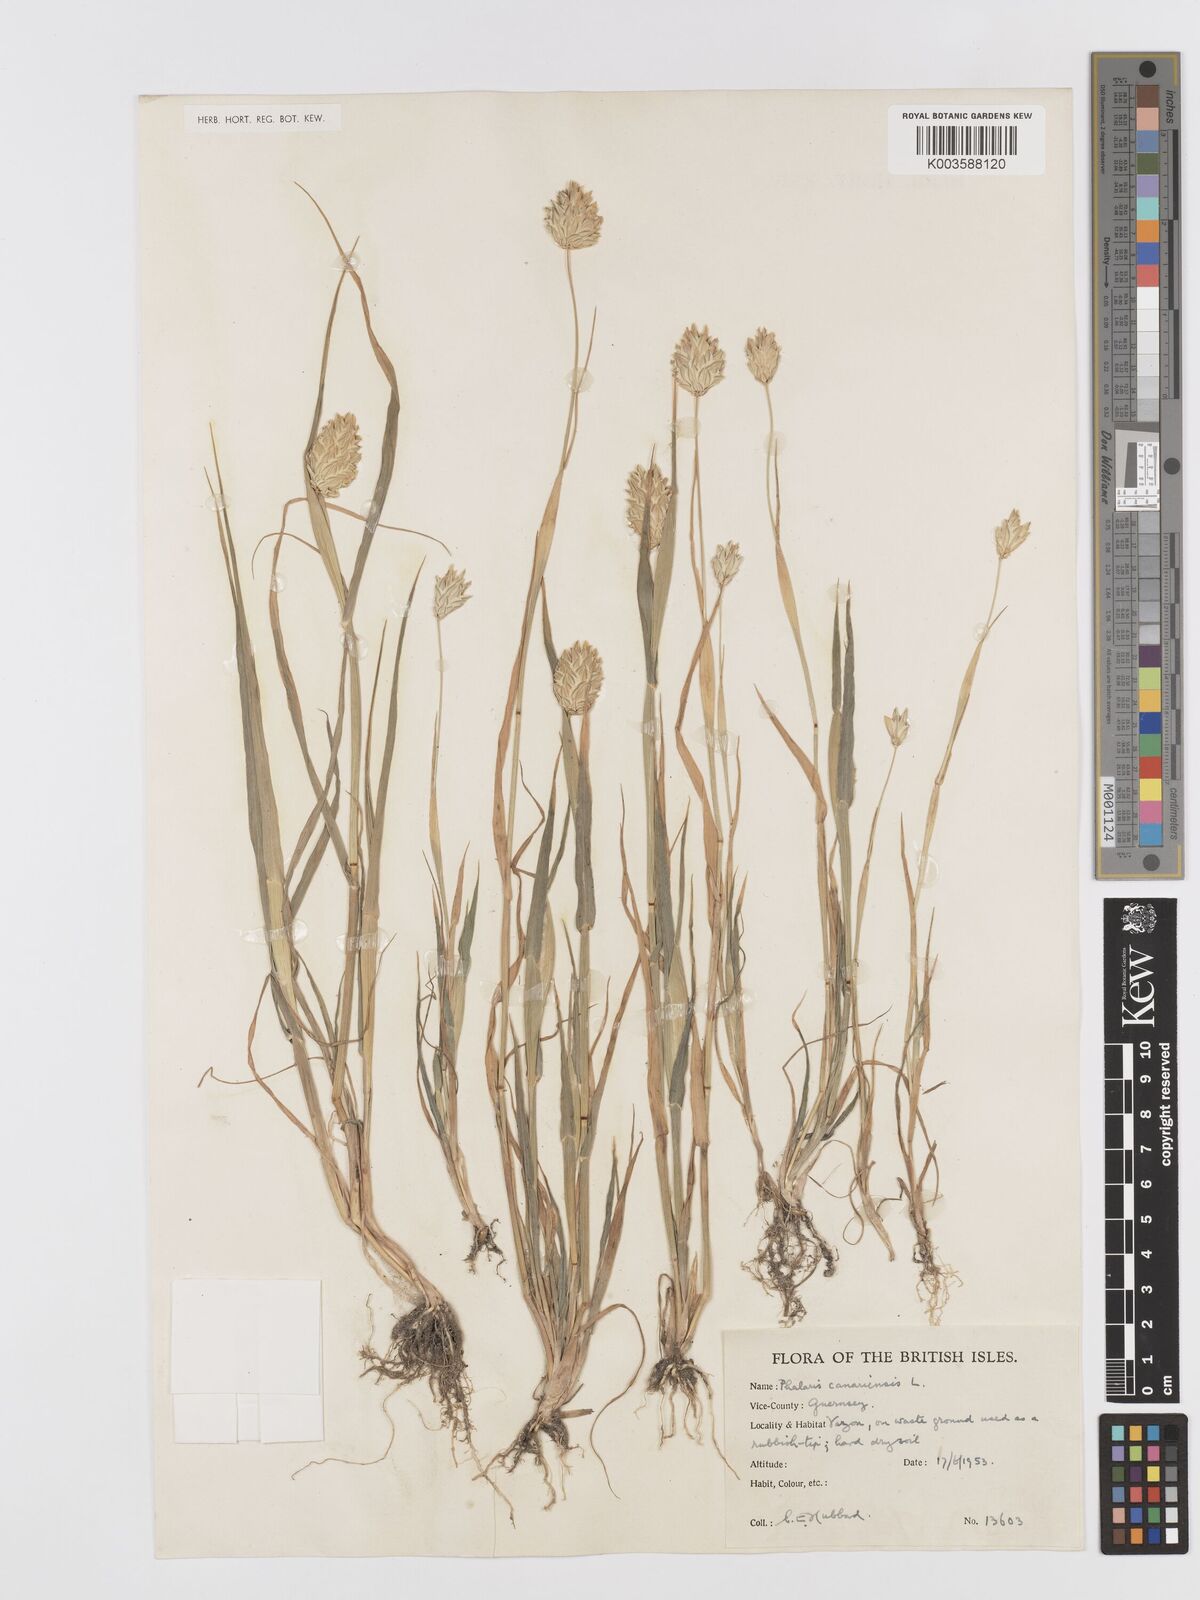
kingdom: Plantae
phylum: Tracheophyta
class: Liliopsida
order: Poales
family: Poaceae
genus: Phalaris
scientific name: Phalaris canariensis
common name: Annual canarygrass
